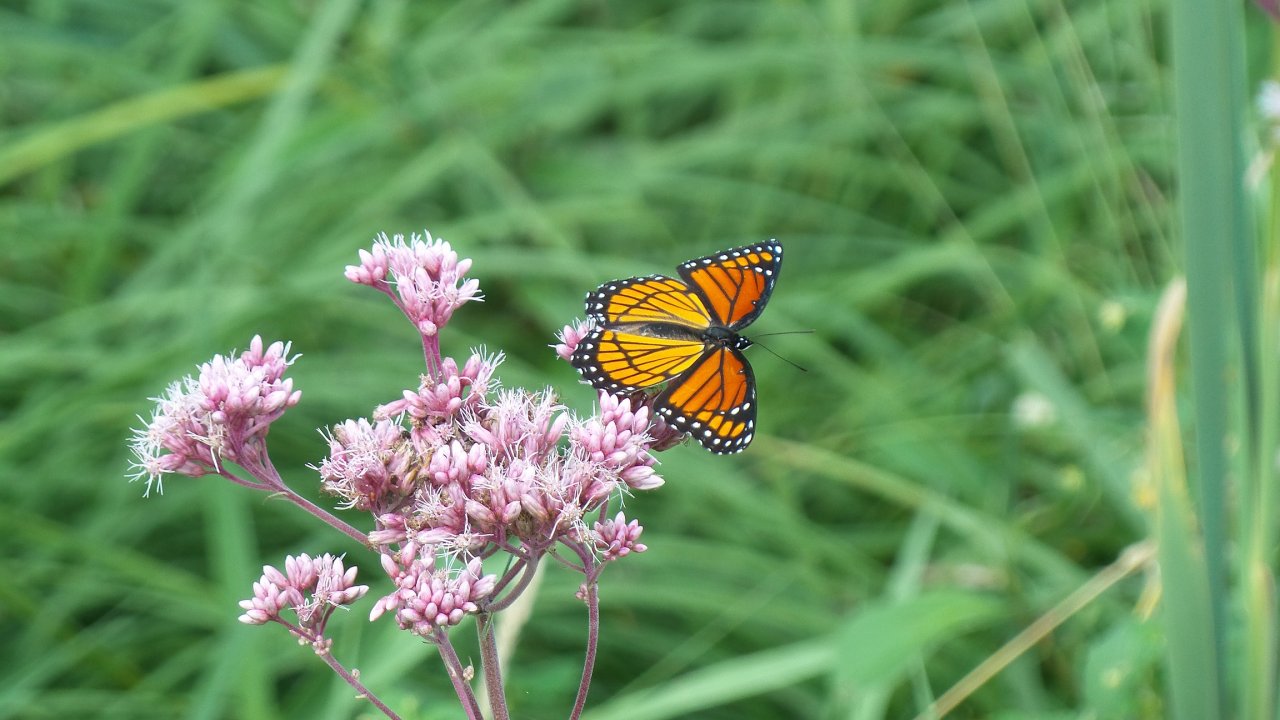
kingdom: Animalia
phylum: Arthropoda
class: Insecta
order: Lepidoptera
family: Nymphalidae
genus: Limenitis
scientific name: Limenitis archippus
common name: Viceroy
